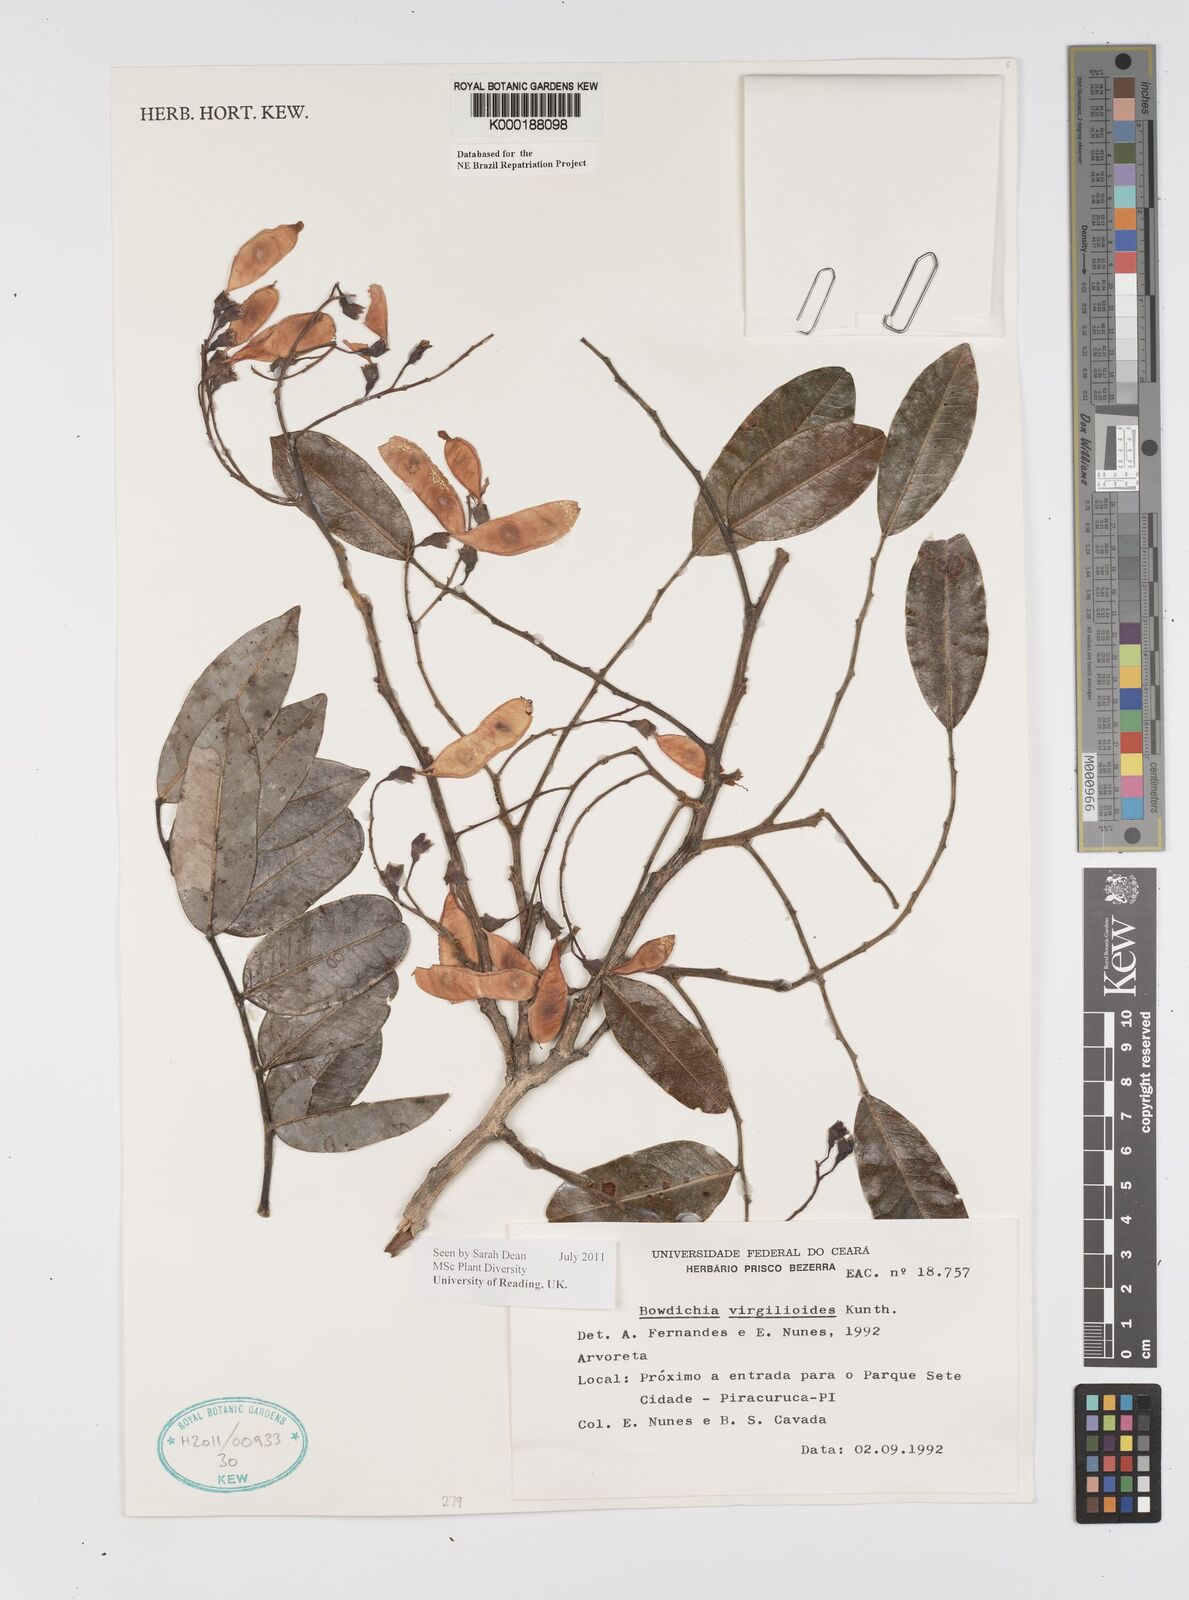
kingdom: Plantae
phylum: Tracheophyta
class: Magnoliopsida
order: Fabales
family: Fabaceae
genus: Bowdichia
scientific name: Bowdichia virgilioides
